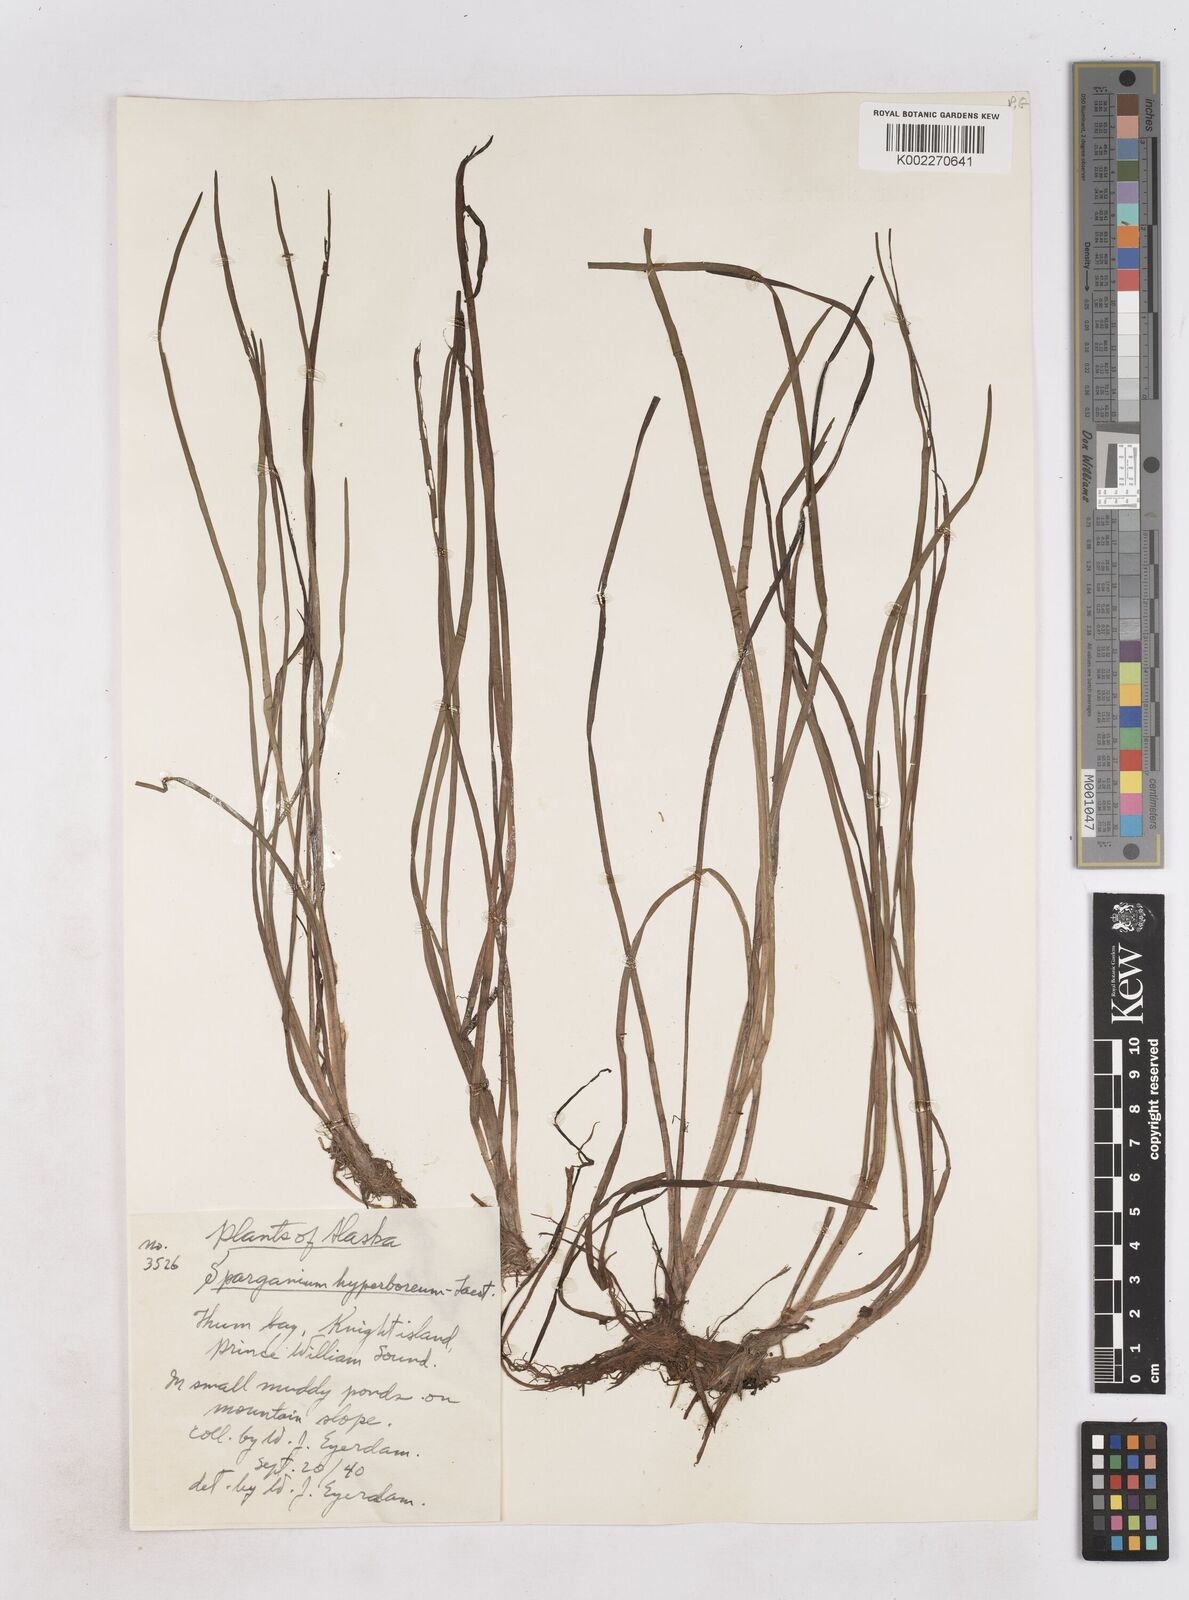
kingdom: Plantae
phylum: Tracheophyta
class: Liliopsida
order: Poales
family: Typhaceae
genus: Sparganium
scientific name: Sparganium hyperboreum
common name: Arctic burreed
